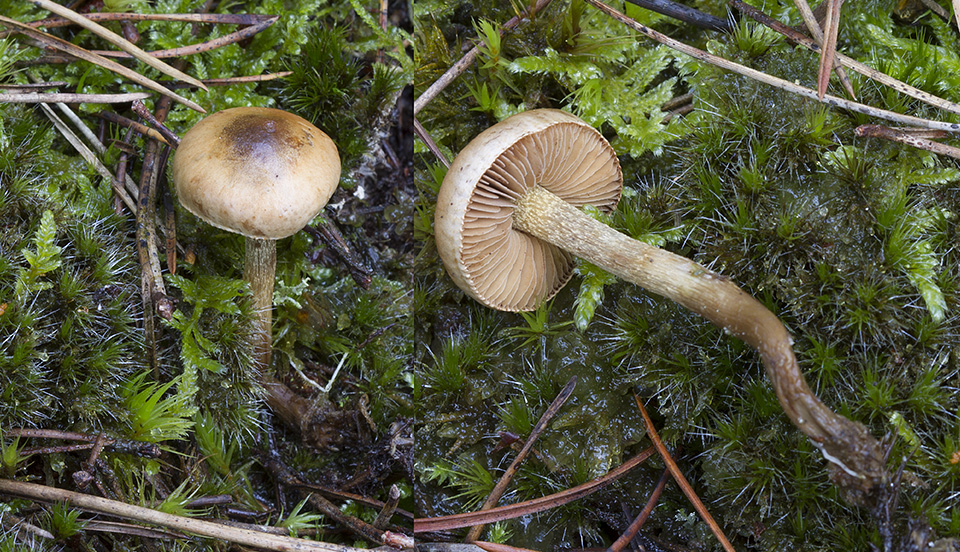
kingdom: Fungi
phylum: Basidiomycota
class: Agaricomycetes
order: Agaricales
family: Hymenogastraceae
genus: Hebeloma
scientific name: Hebeloma cylindrosporum
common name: fyrre-tåreblad
